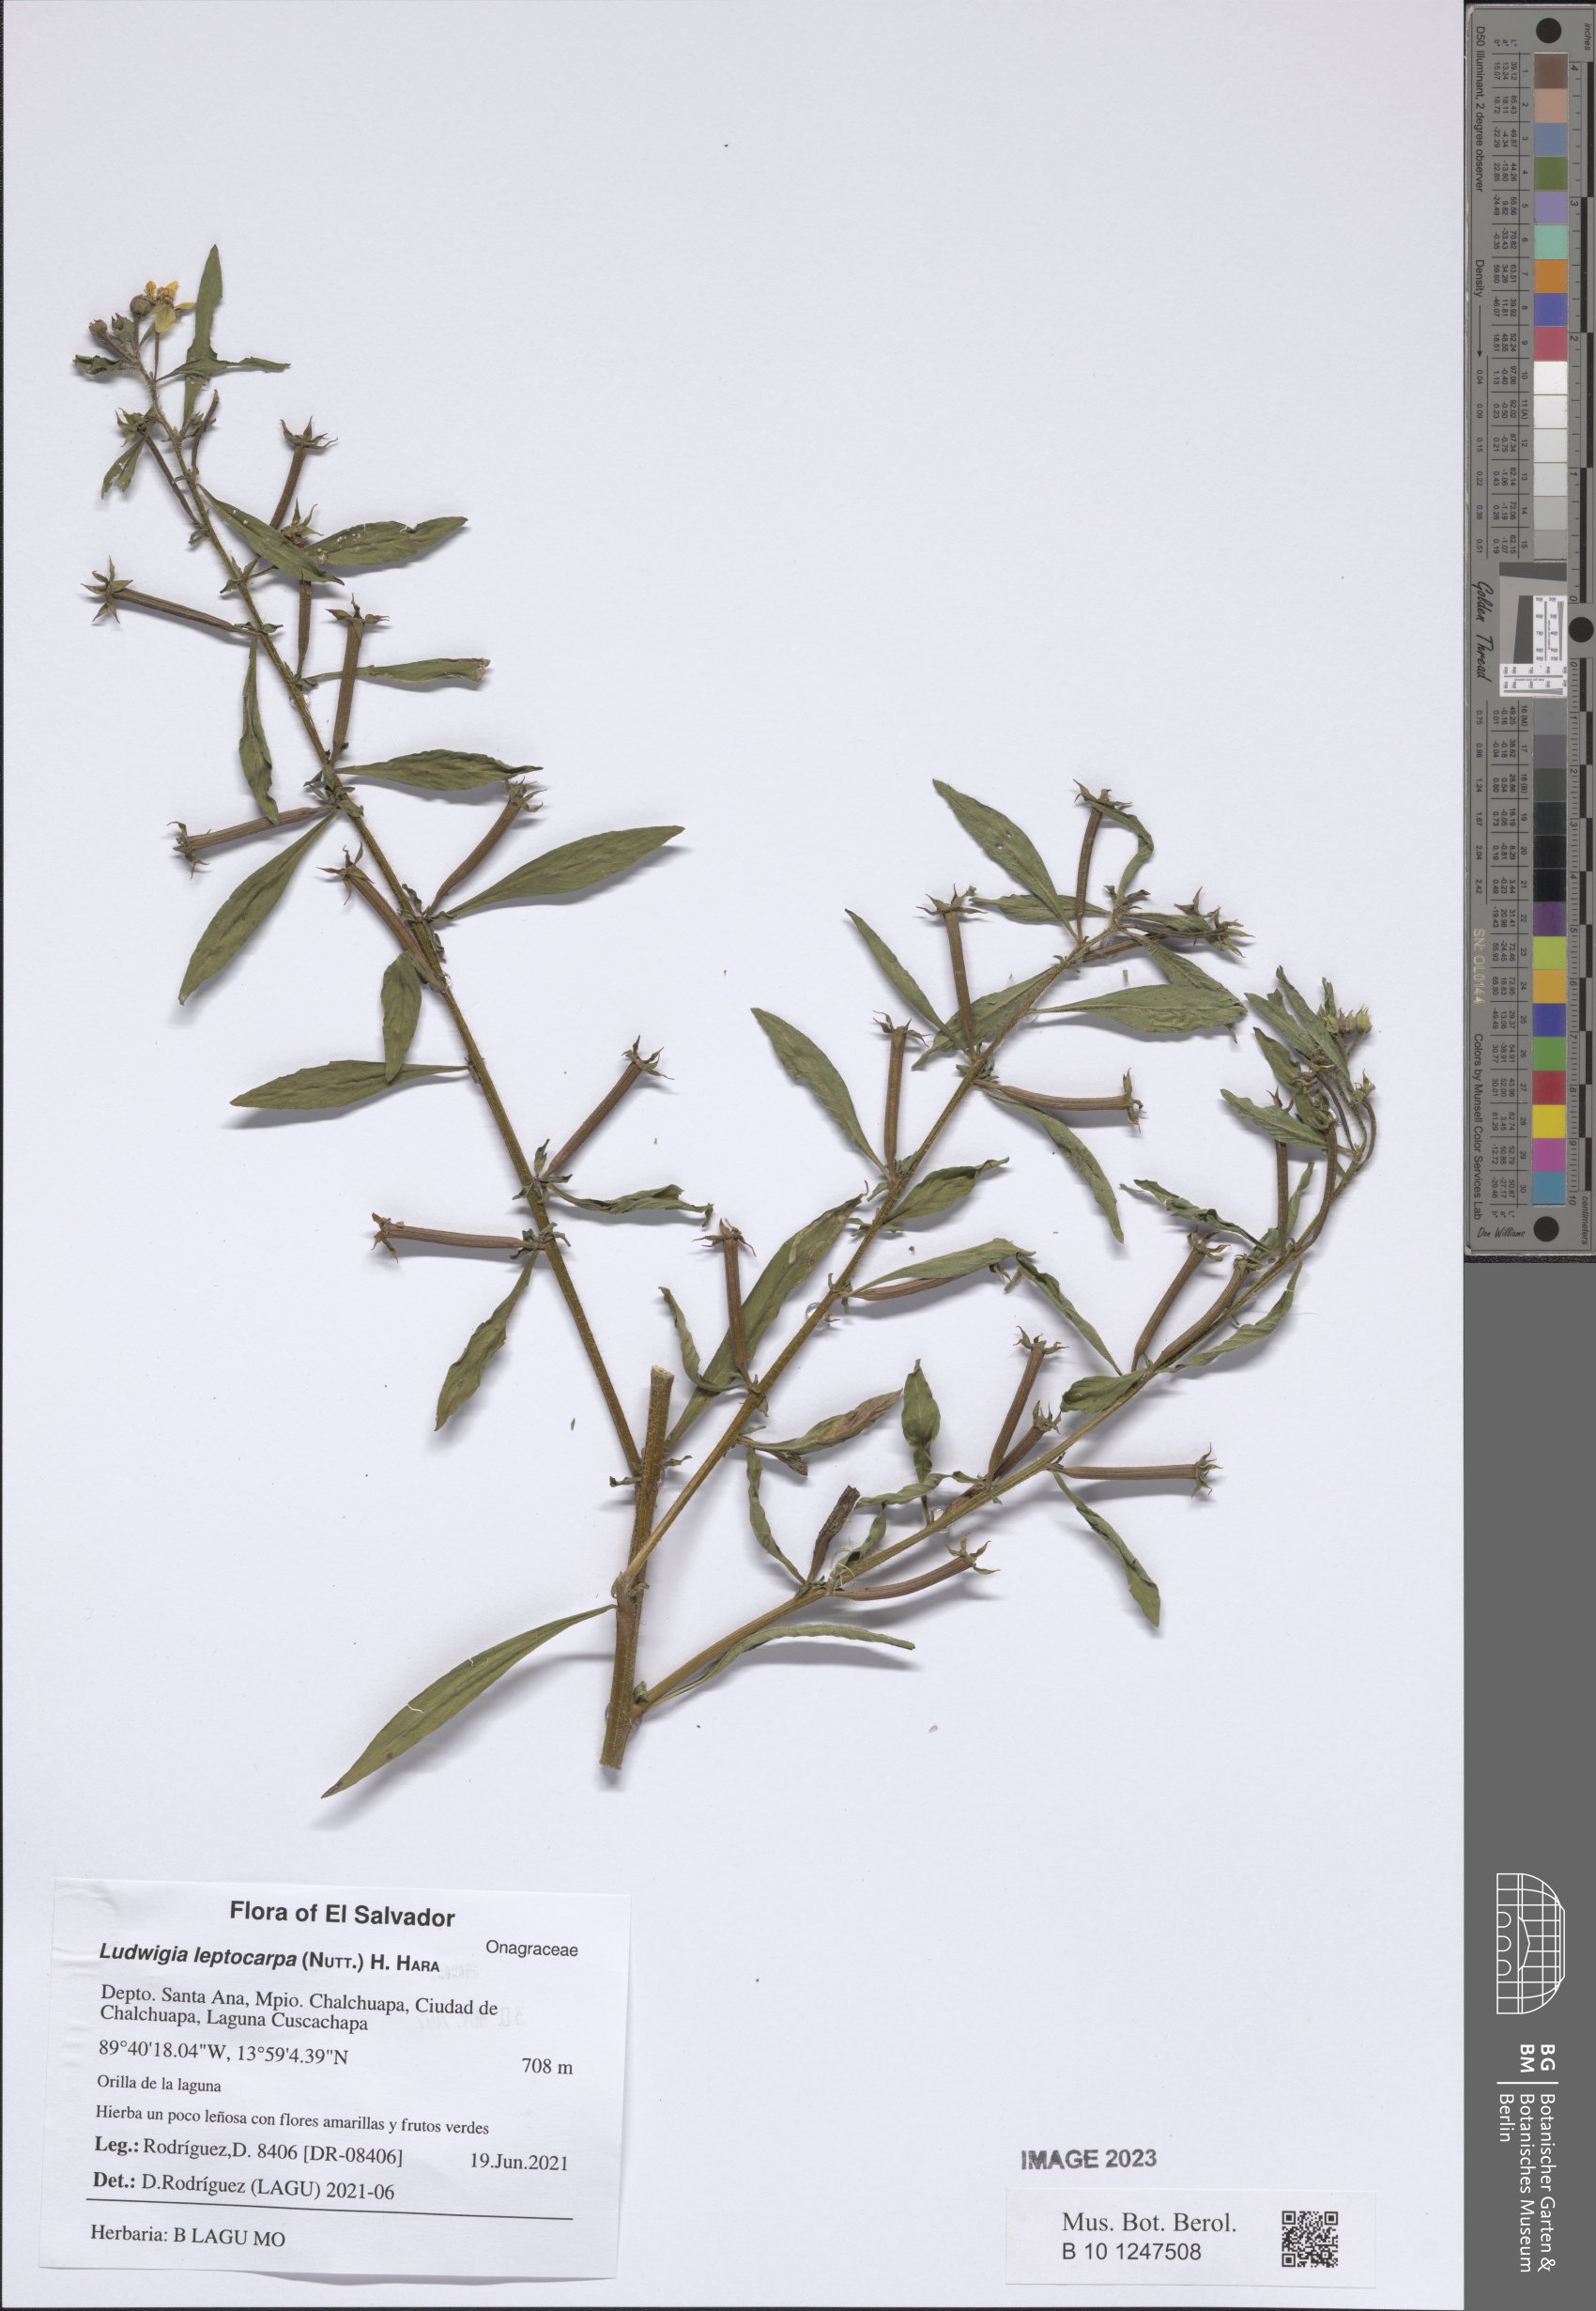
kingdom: Plantae
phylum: Tracheophyta
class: Magnoliopsida
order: Myrtales
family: Onagraceae
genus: Ludwigia
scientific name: Ludwigia leptocarpa
